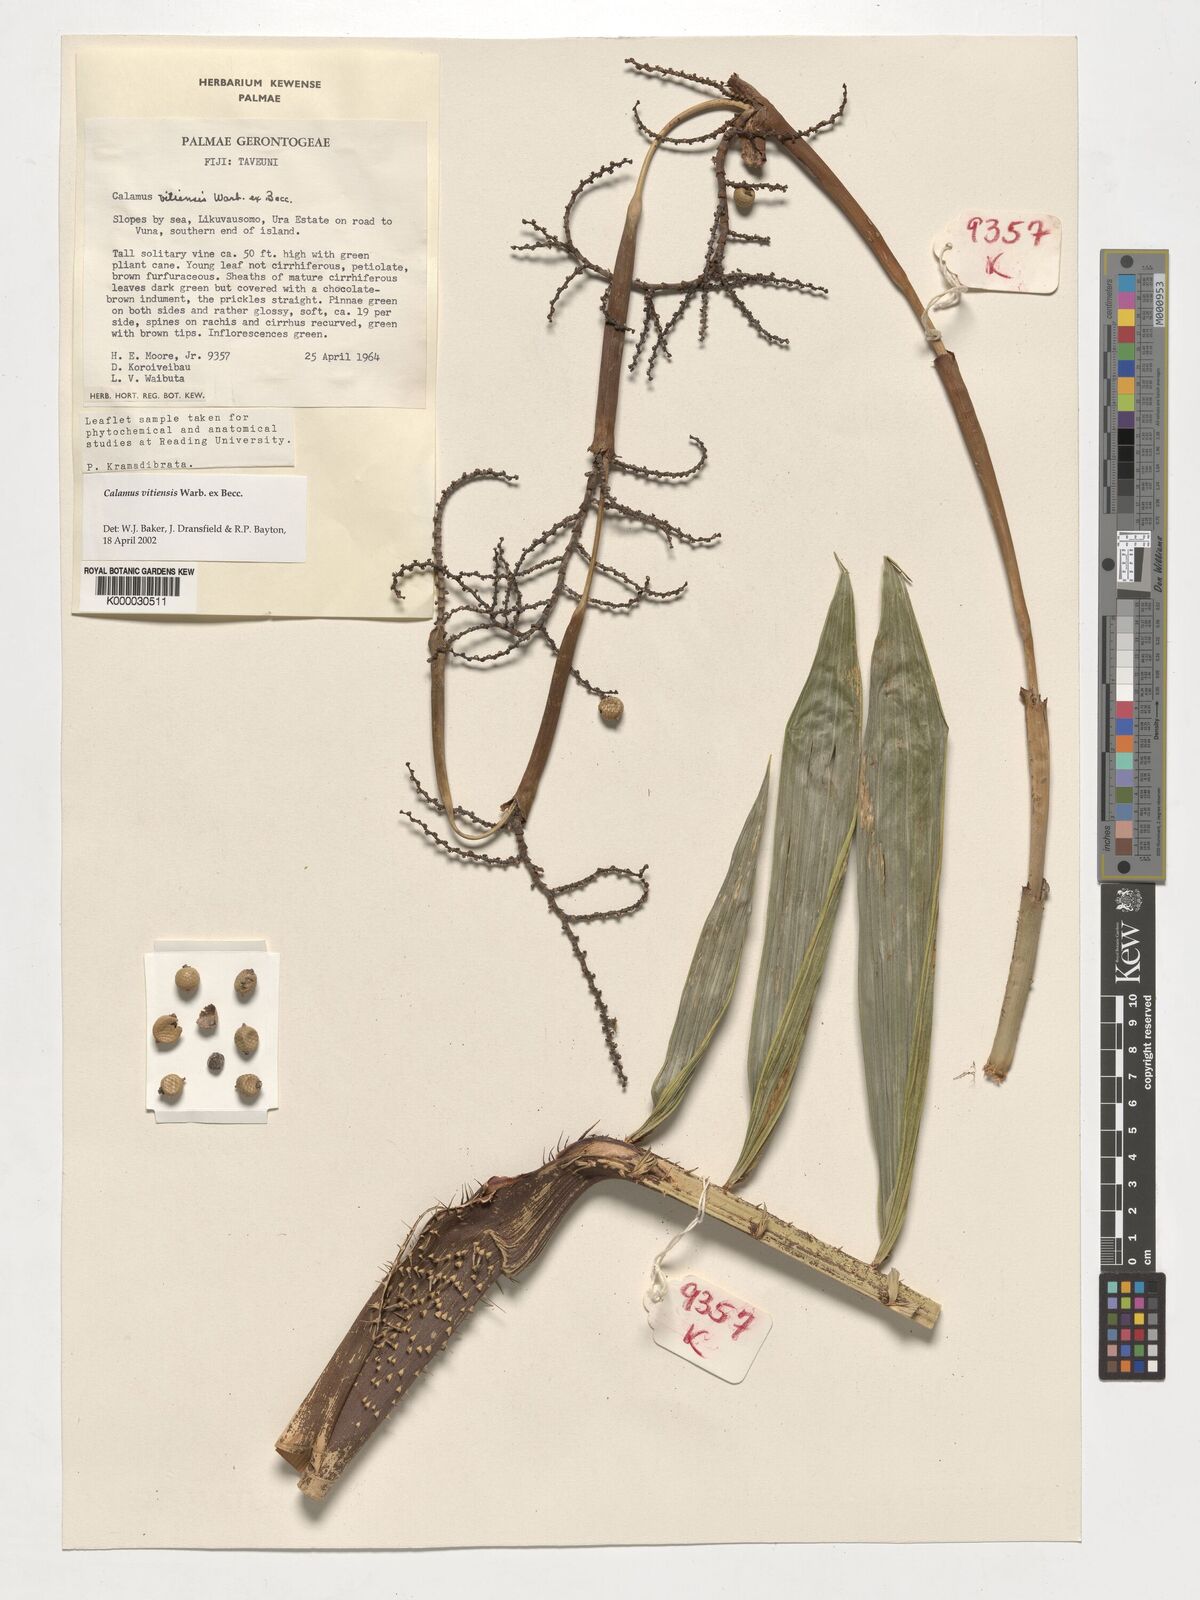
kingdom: Plantae
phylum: Tracheophyta
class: Liliopsida
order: Arecales
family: Arecaceae
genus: Calamus
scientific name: Calamus vitiensis
